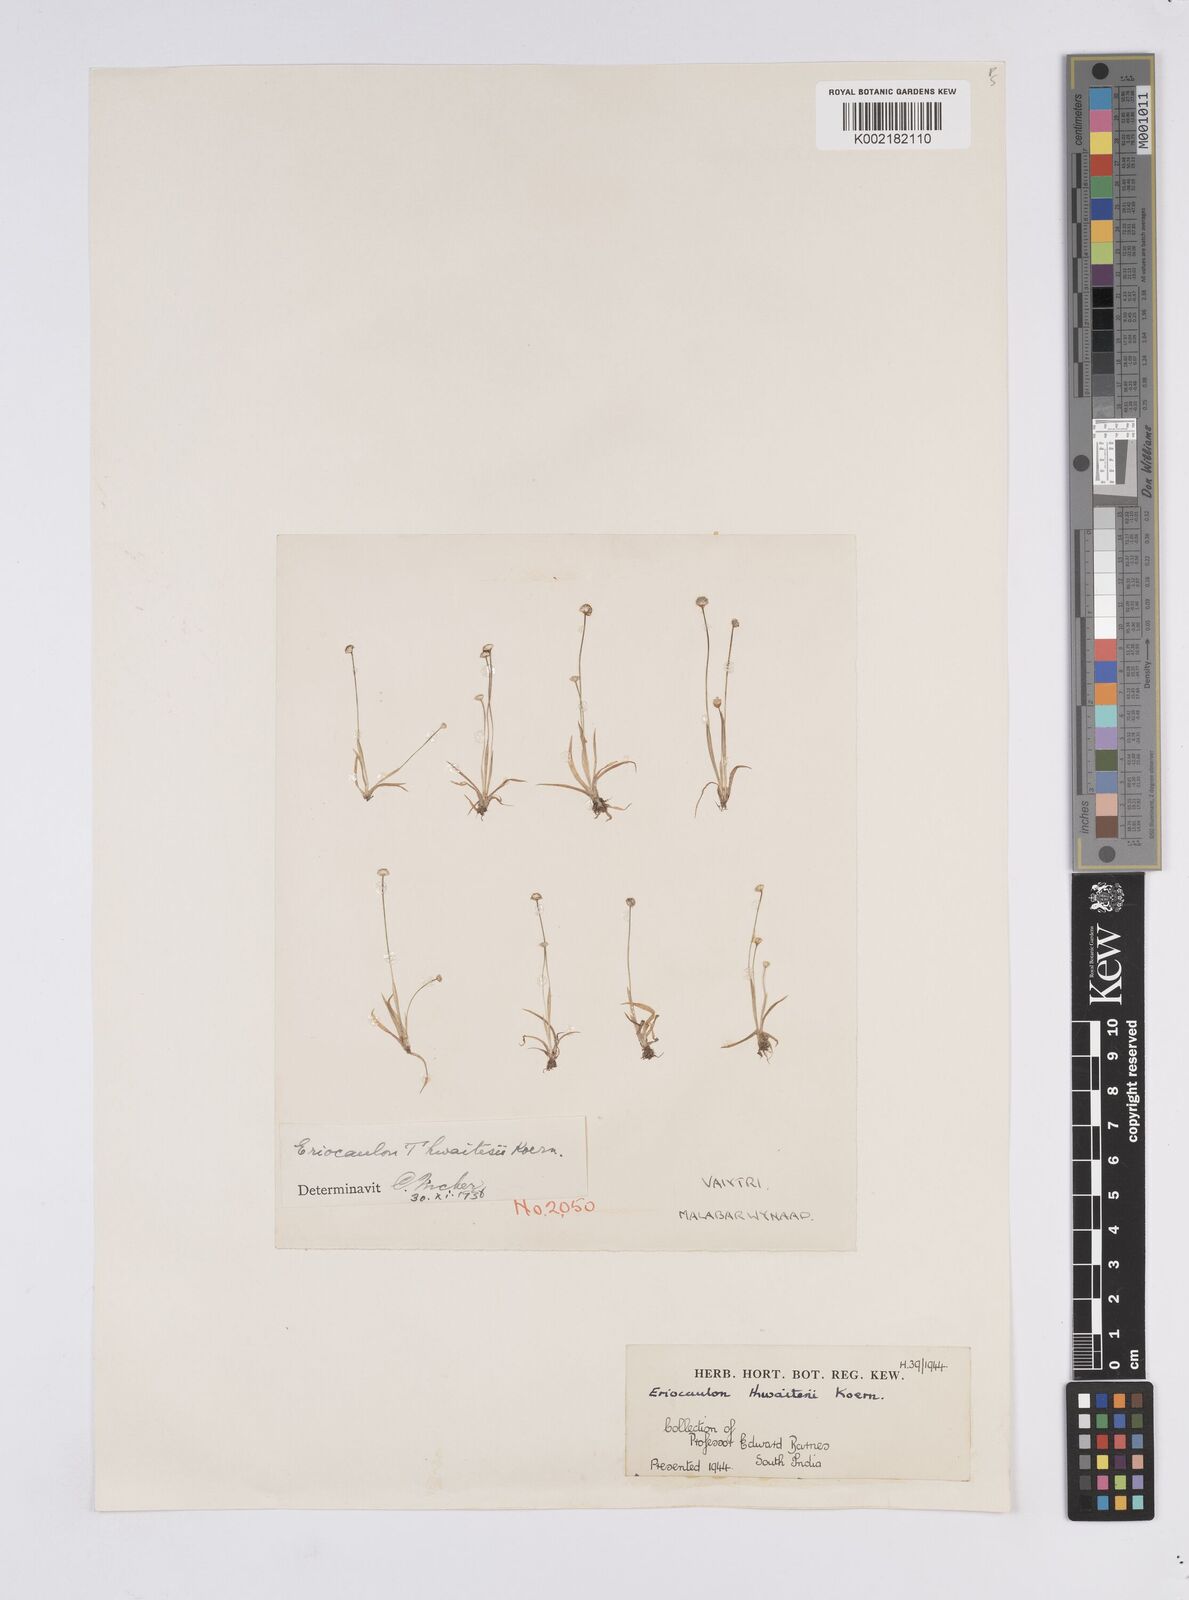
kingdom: Plantae
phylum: Tracheophyta
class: Liliopsida
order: Poales
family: Eriocaulaceae
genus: Eriocaulon
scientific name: Eriocaulon
